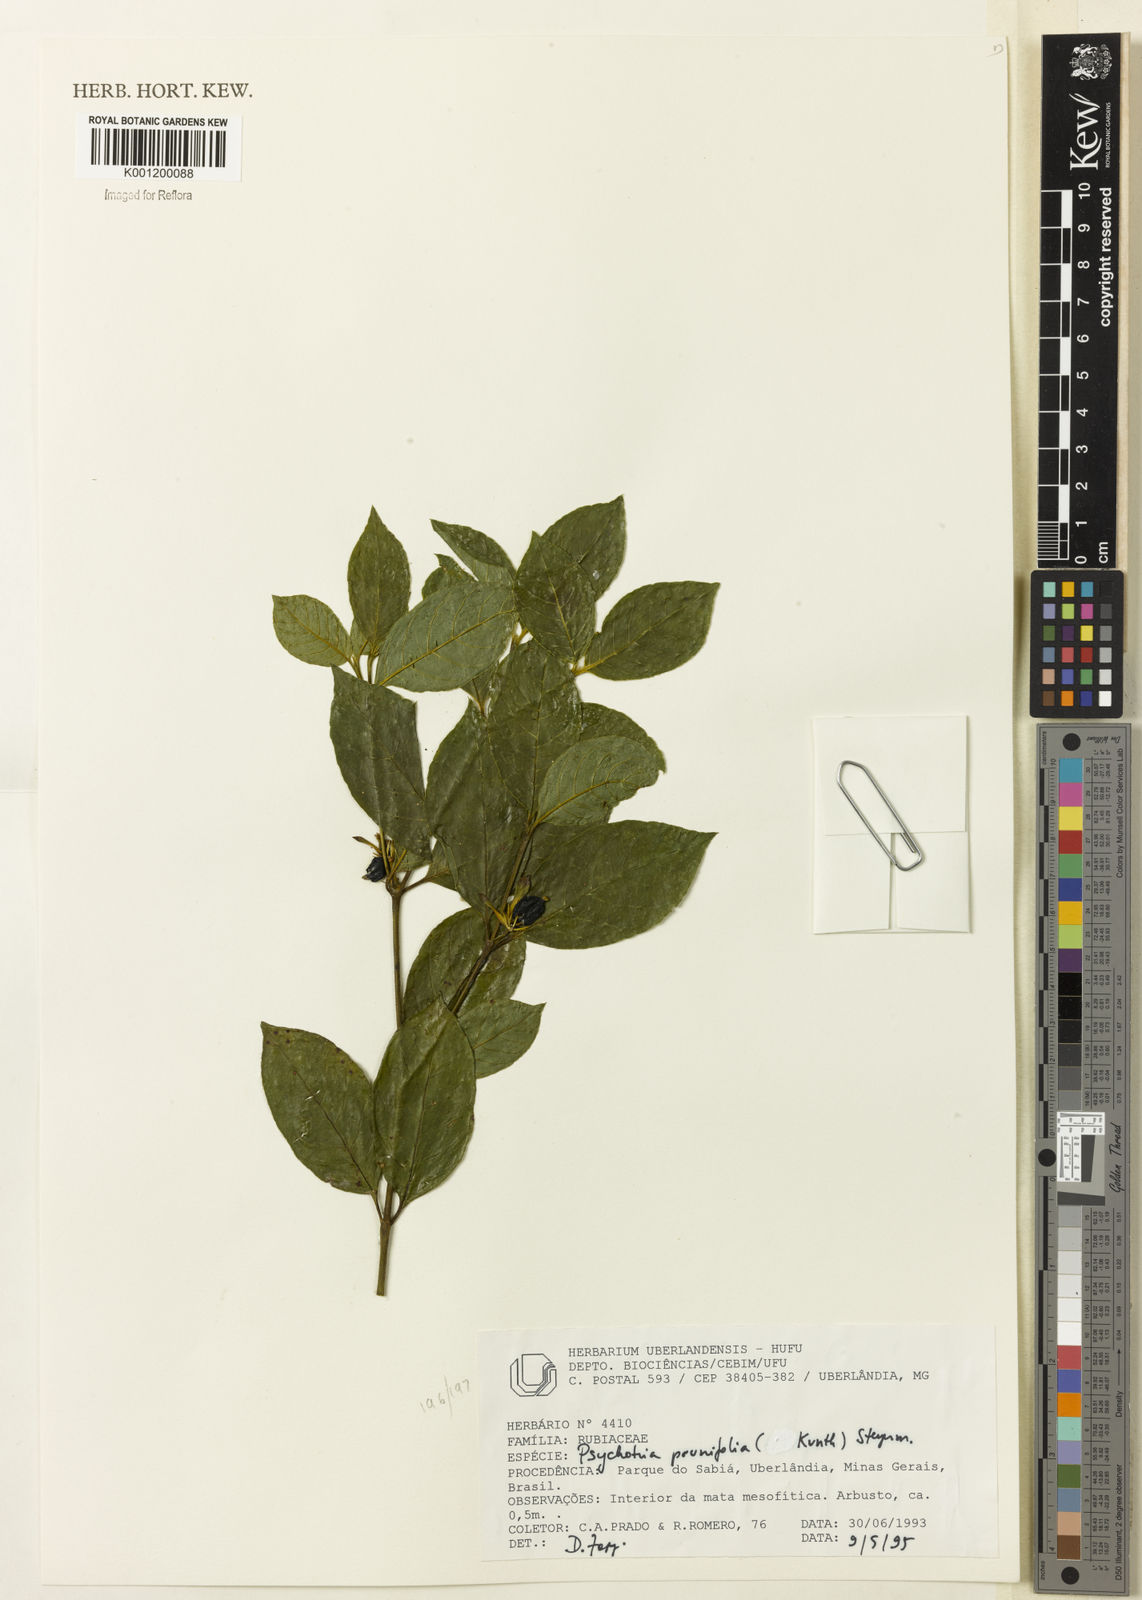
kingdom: Plantae
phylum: Tracheophyta
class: Magnoliopsida
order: Gentianales
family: Rubiaceae
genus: Palicourea
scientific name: Palicourea prunifolia
